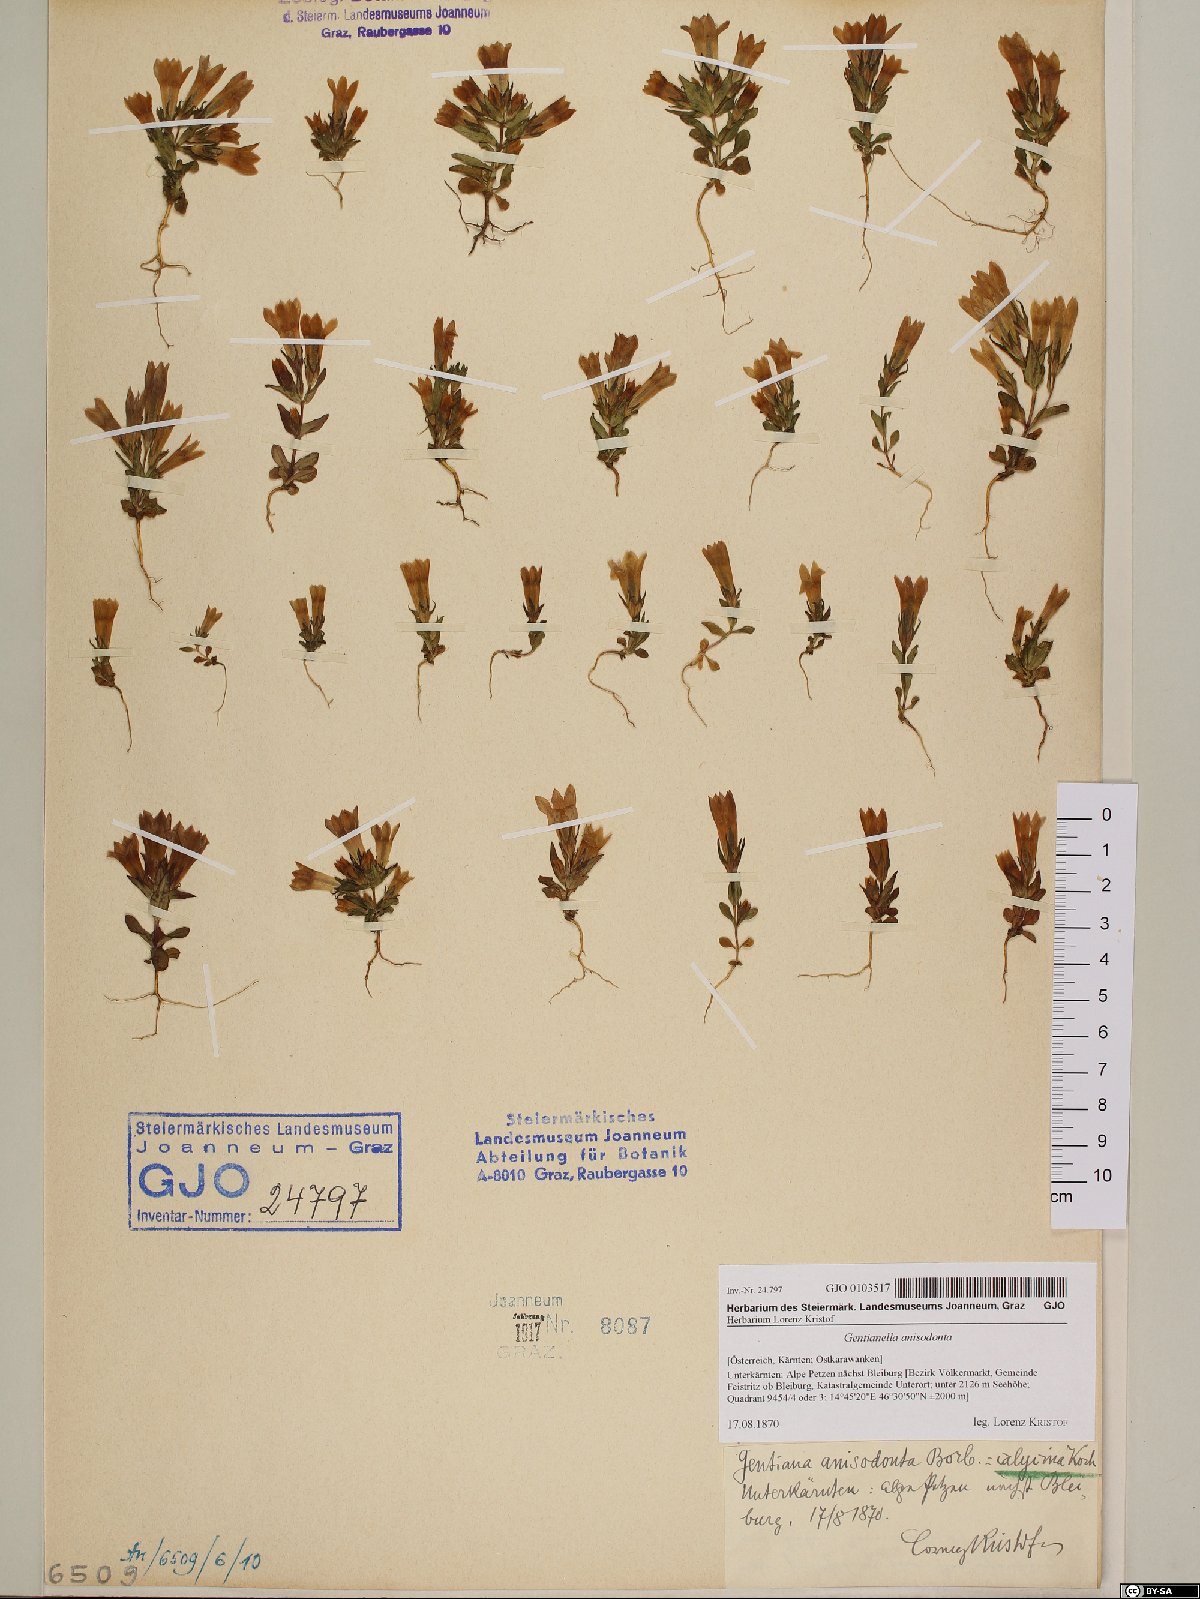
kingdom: Plantae
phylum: Tracheophyta
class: Magnoliopsida
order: Gentianales
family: Gentianaceae
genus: Gentianella
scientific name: Gentianella anisodonta
